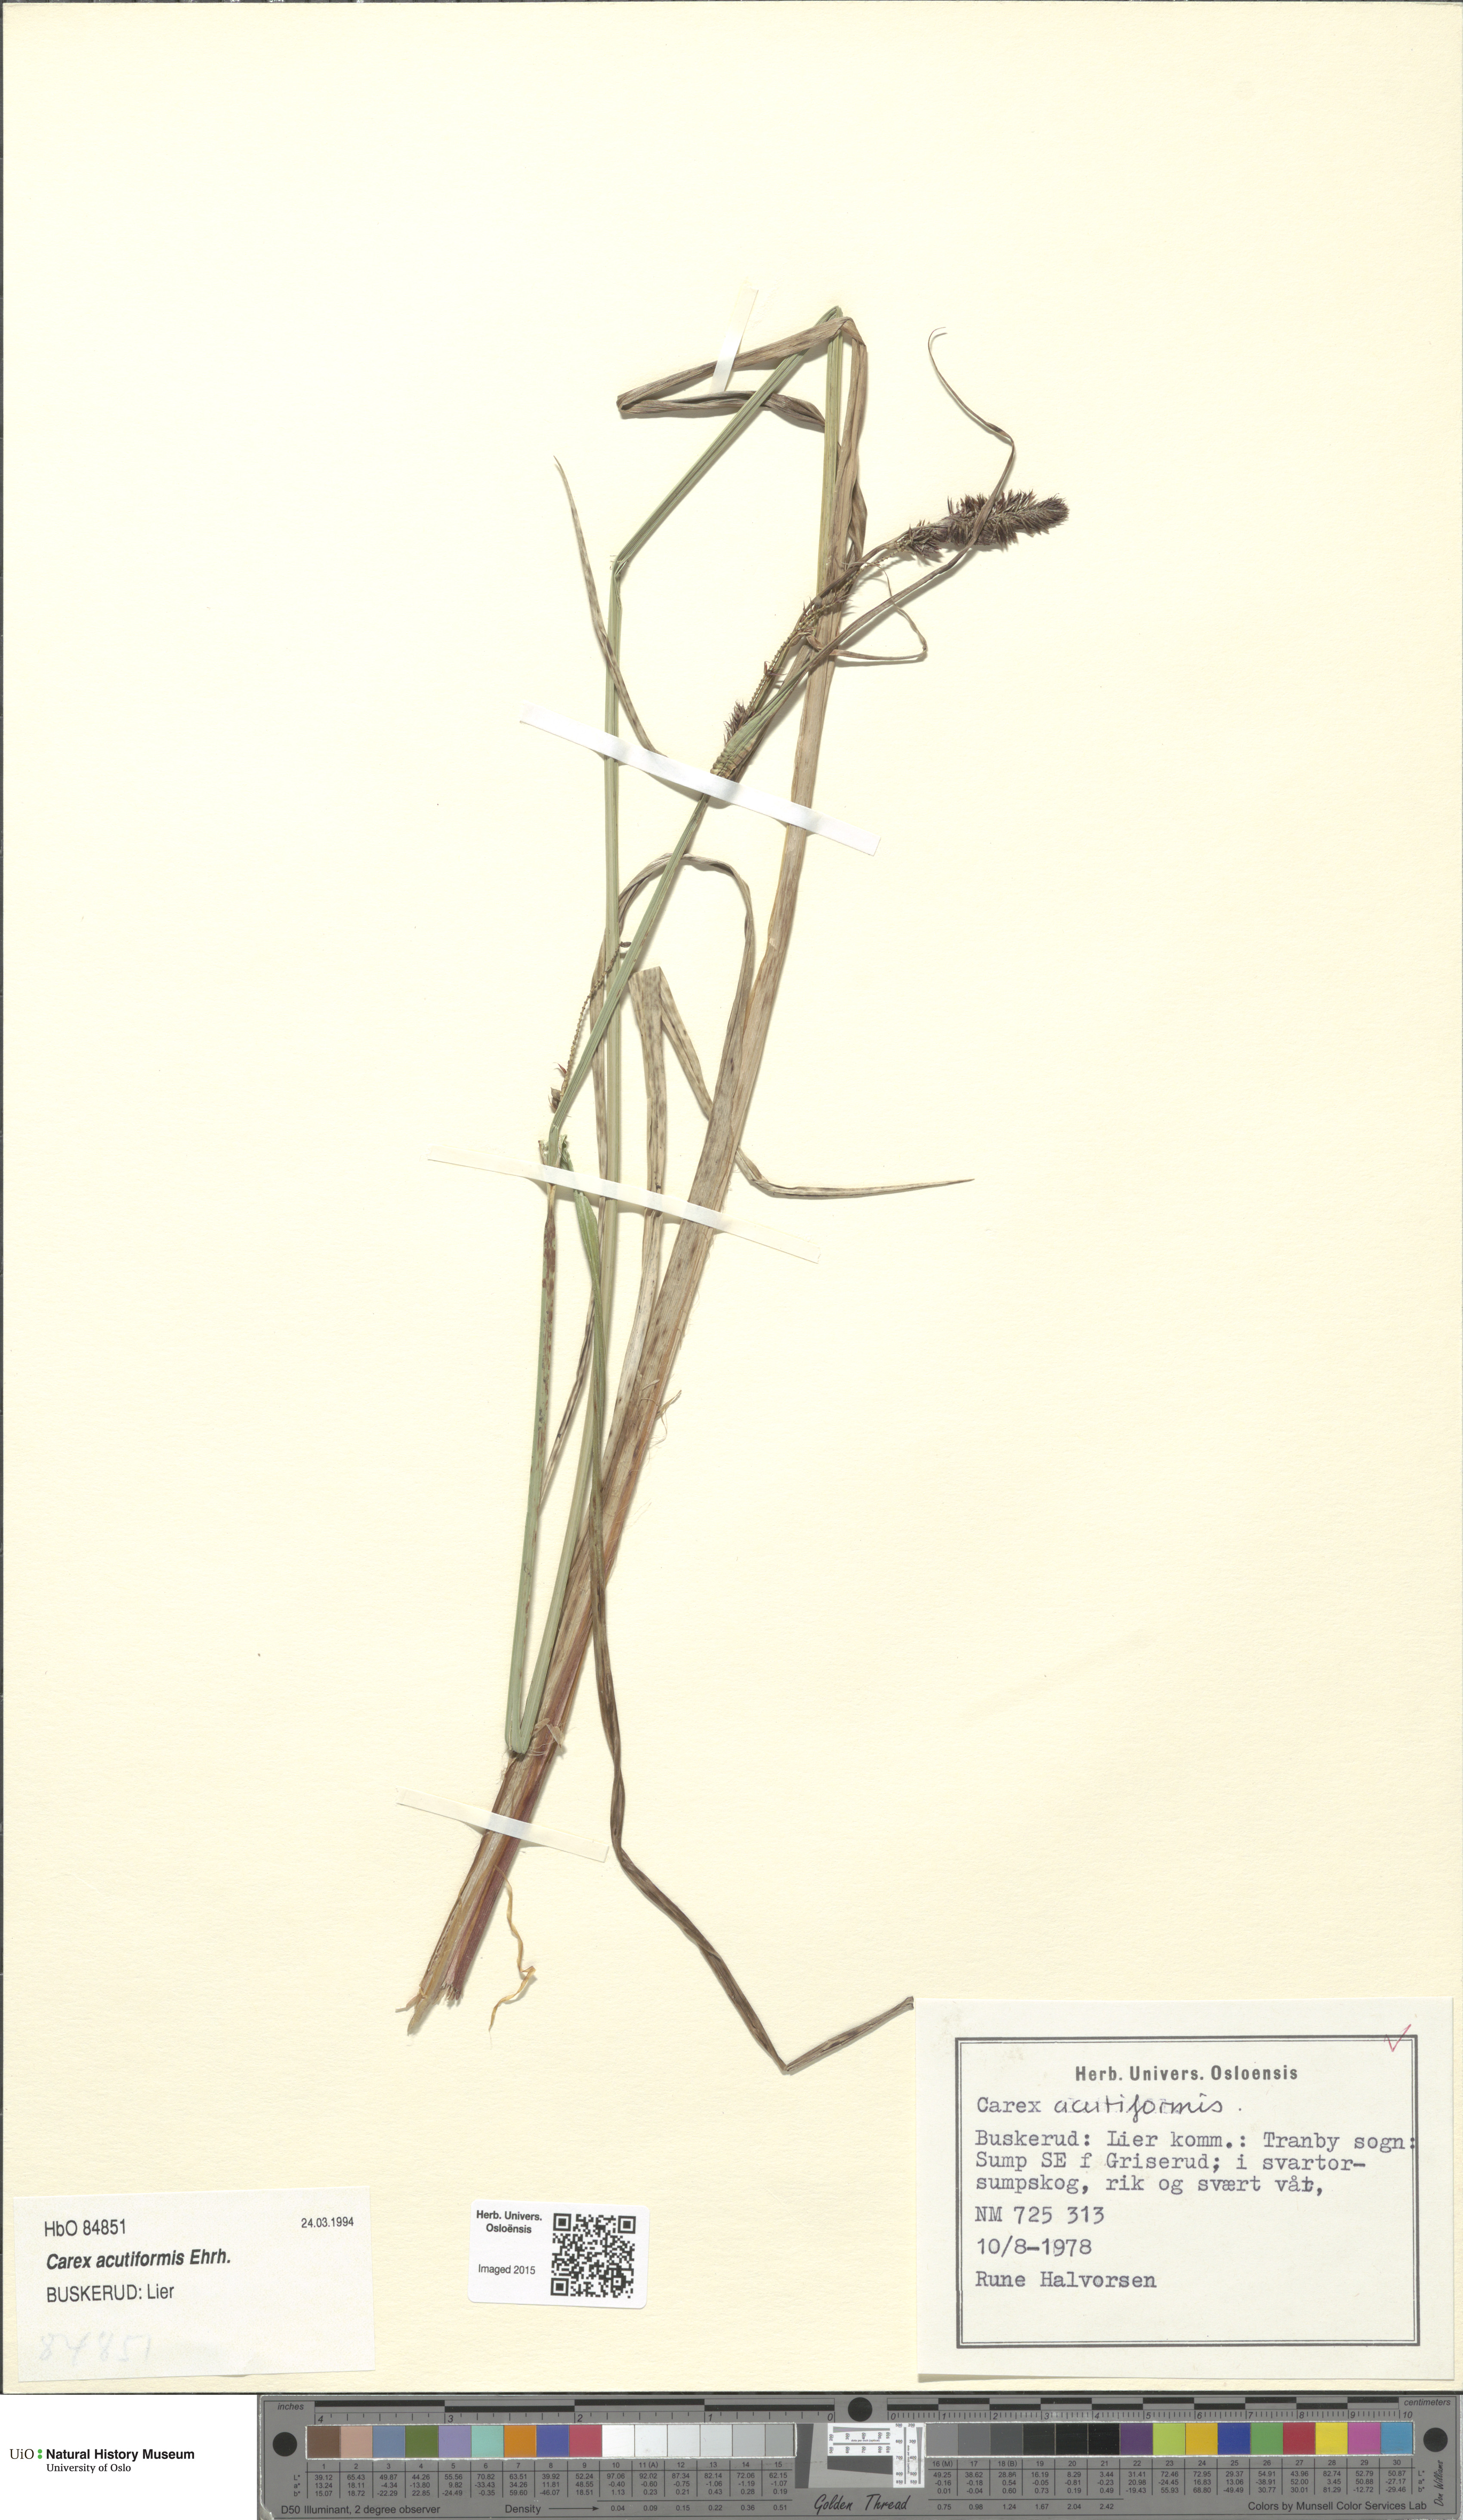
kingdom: Plantae
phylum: Tracheophyta
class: Liliopsida
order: Poales
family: Cyperaceae
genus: Carex
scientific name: Carex acutiformis
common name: Lesser pond-sedge
